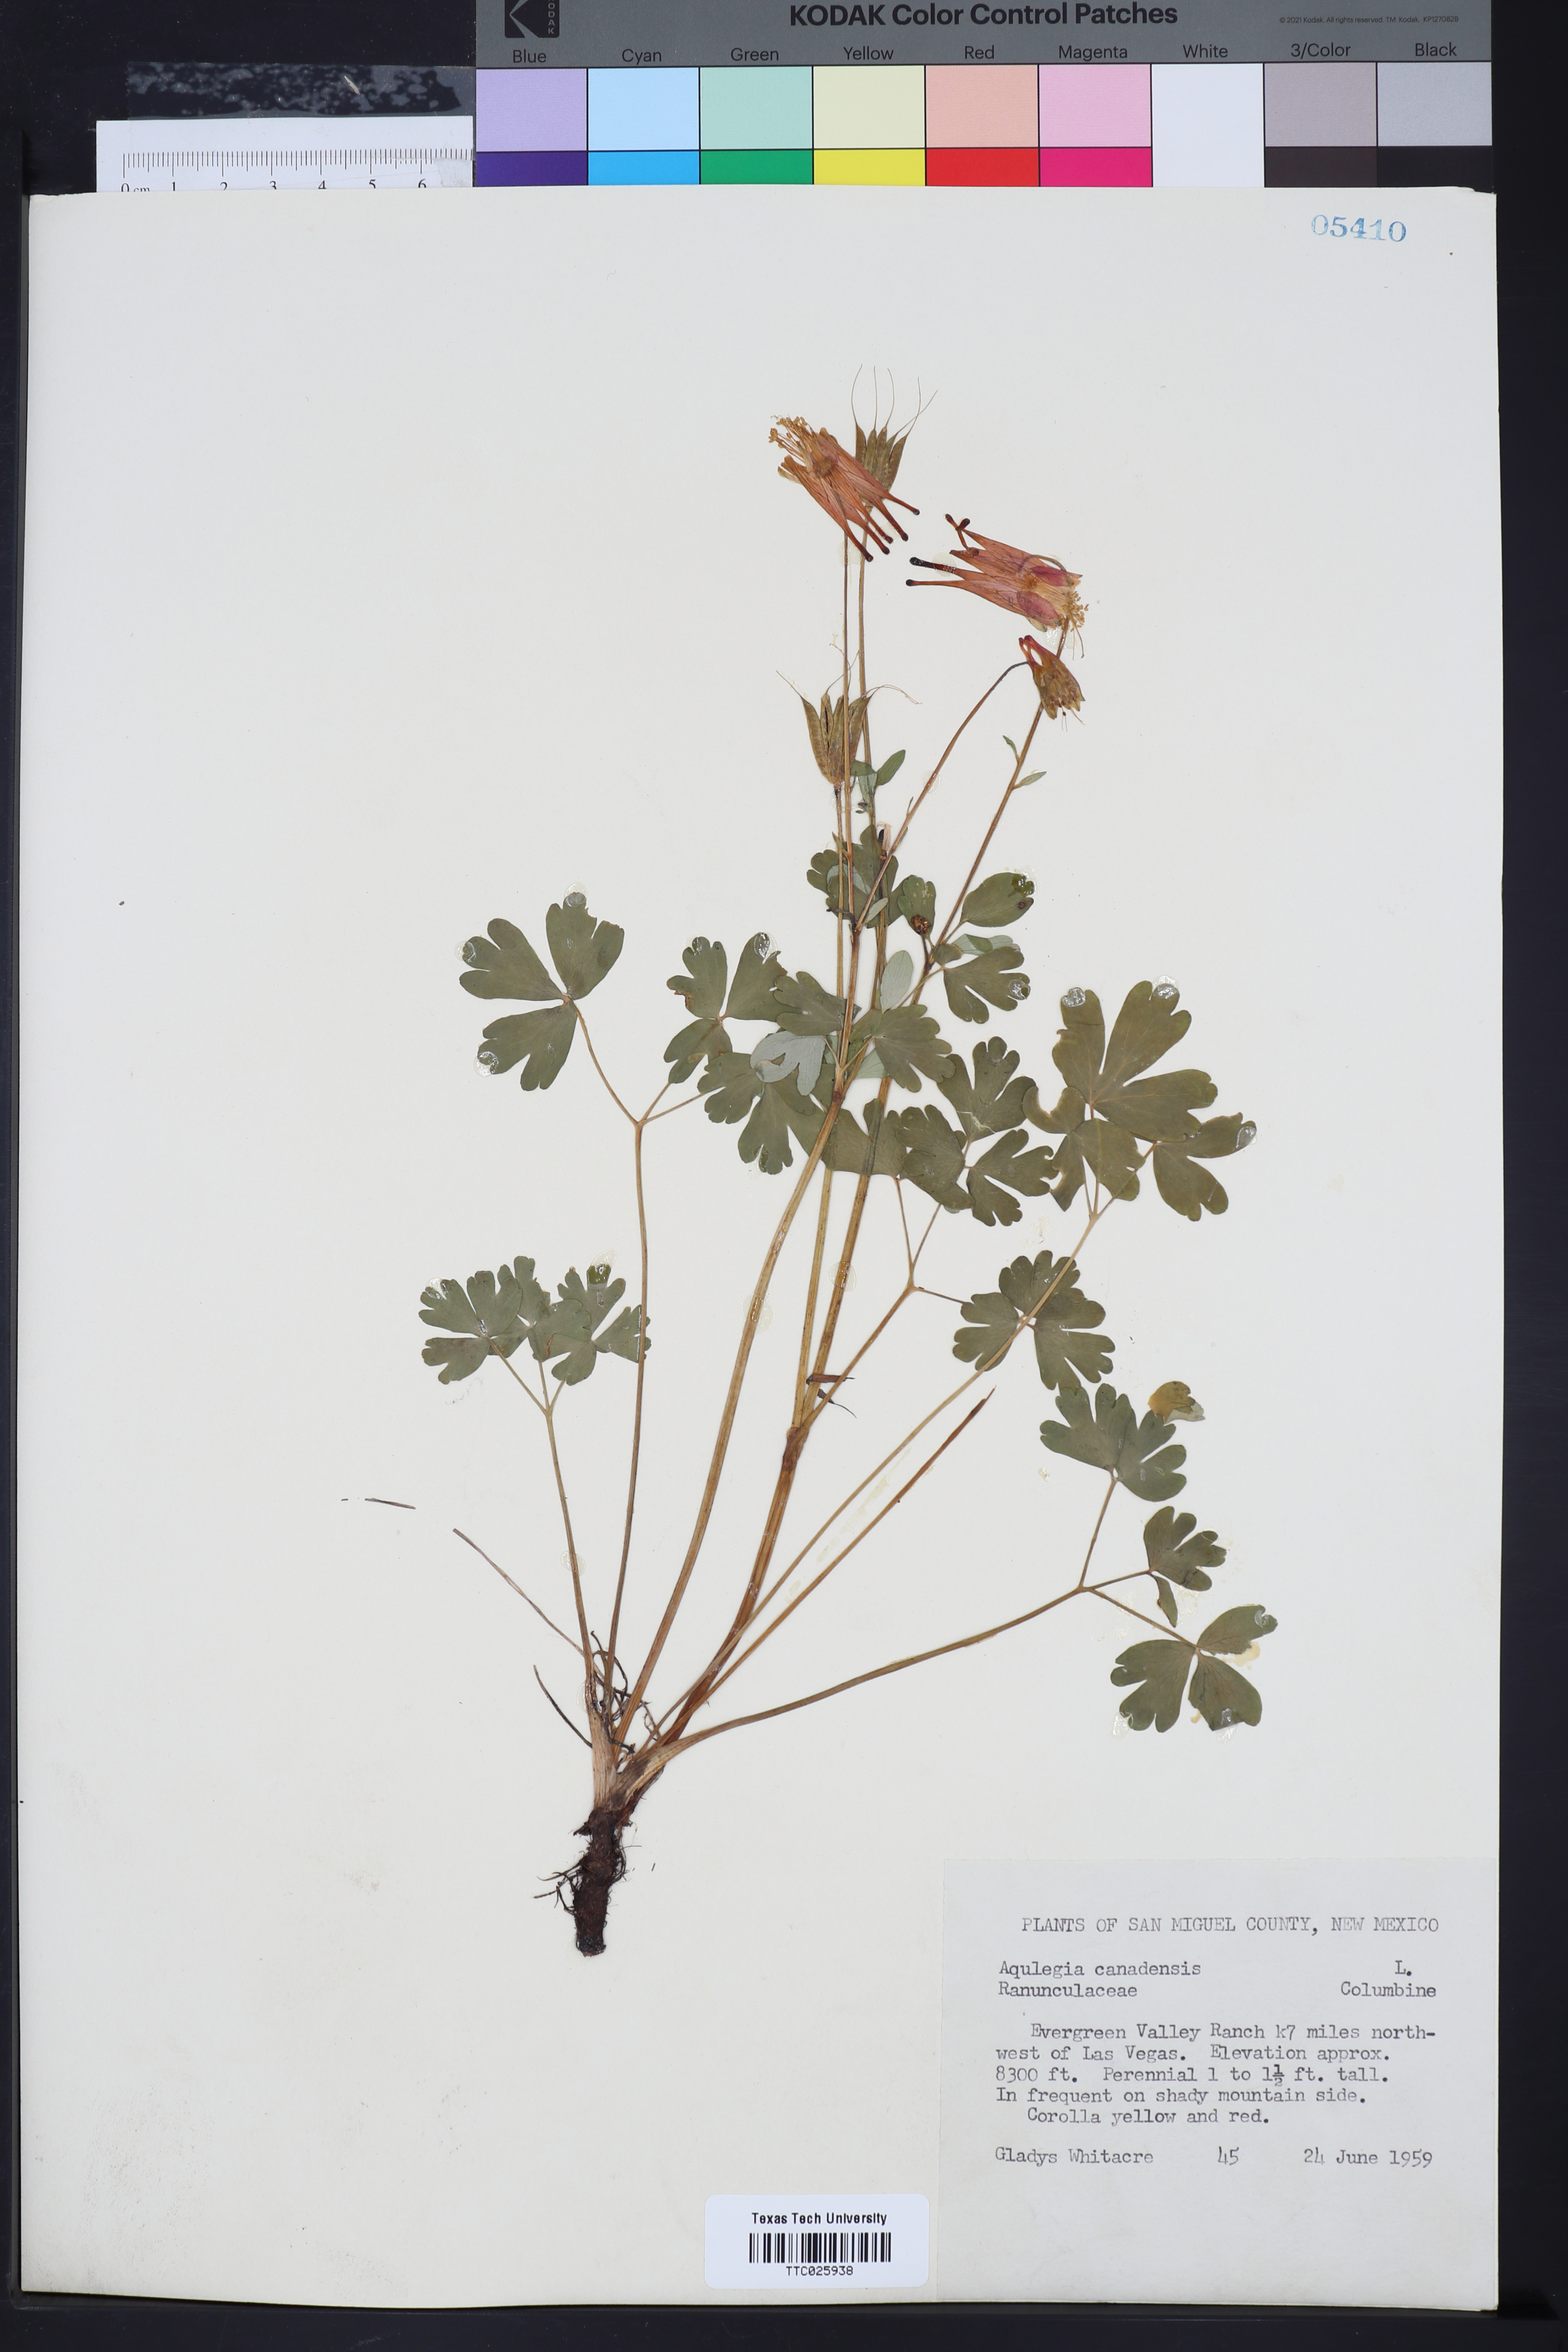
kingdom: Plantae
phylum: Tracheophyta
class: Magnoliopsida
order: Ranunculales
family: Ranunculaceae
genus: Aquilegia
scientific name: Aquilegia canadensis
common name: American columbine
